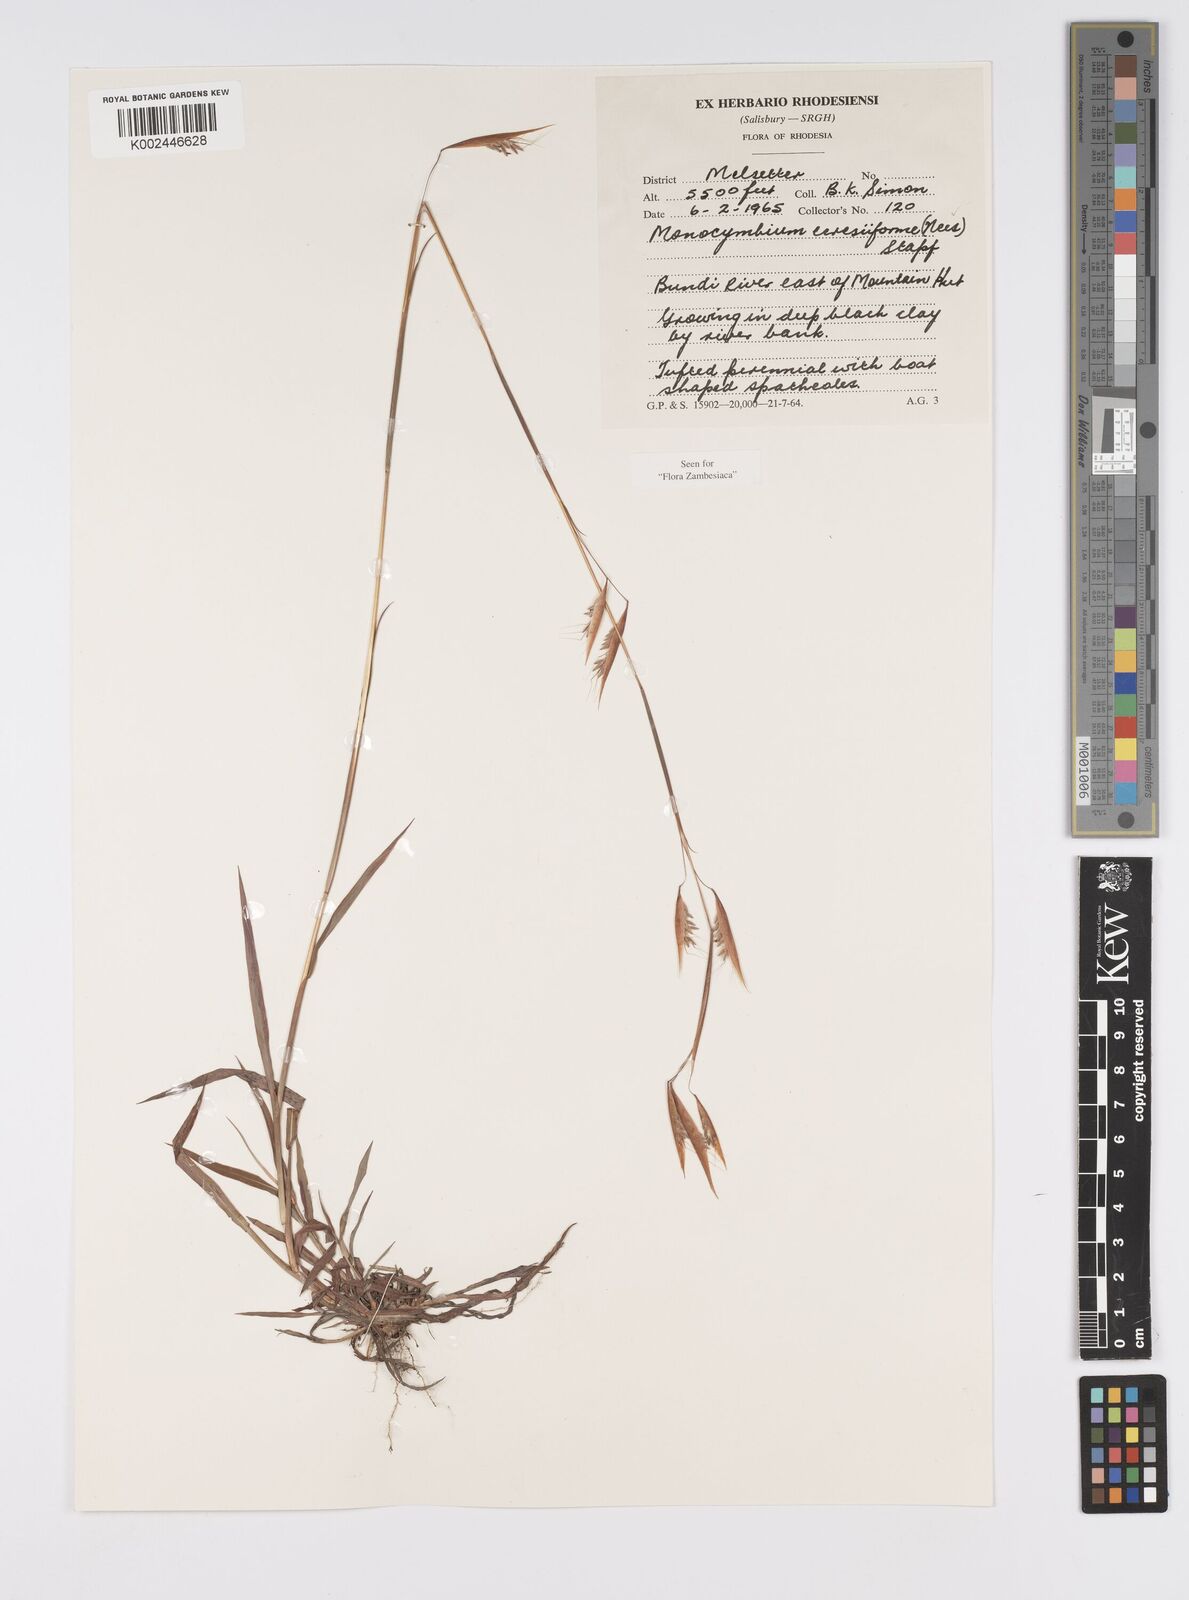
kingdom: Plantae
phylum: Tracheophyta
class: Liliopsida
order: Poales
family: Poaceae
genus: Monocymbium
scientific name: Monocymbium ceresiiforme
